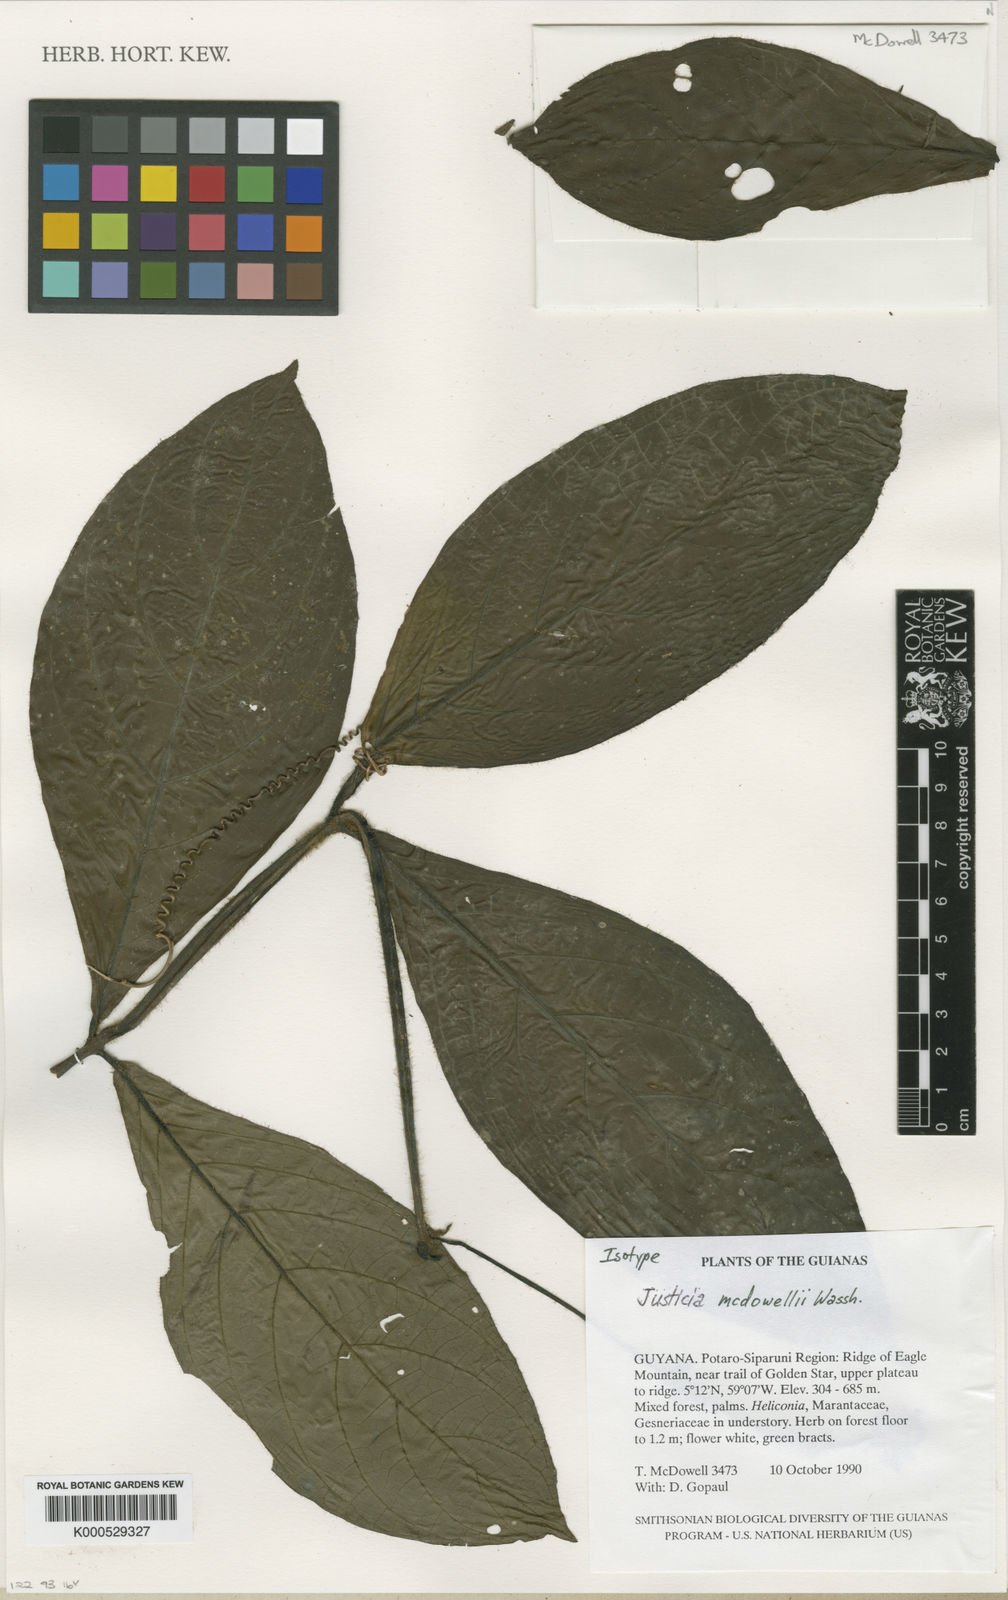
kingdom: Plantae
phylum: Tracheophyta
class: Magnoliopsida
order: Lamiales
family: Acanthaceae
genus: Justicia
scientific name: Justicia mcdowellii
